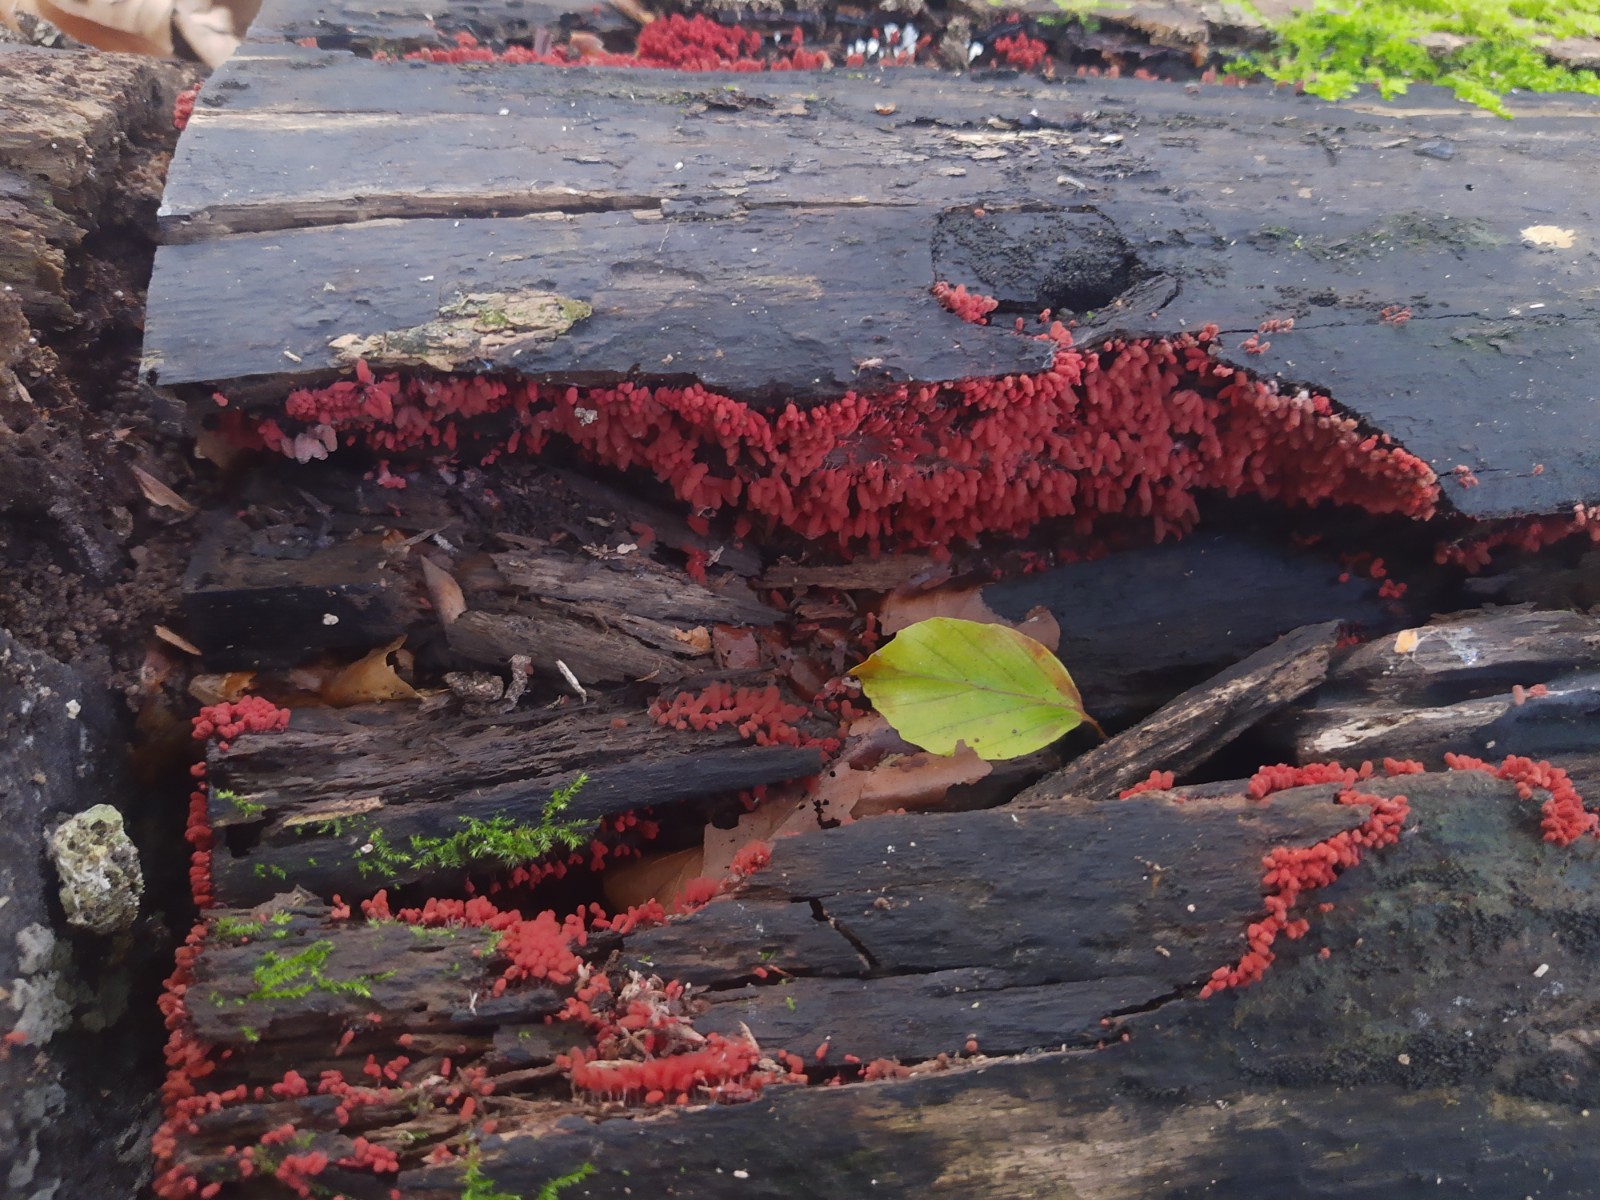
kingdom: Protozoa
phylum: Mycetozoa
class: Myxomycetes
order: Trichiales
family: Arcyriaceae
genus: Arcyria
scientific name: Arcyria denudata
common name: karminrød skålsvøb
